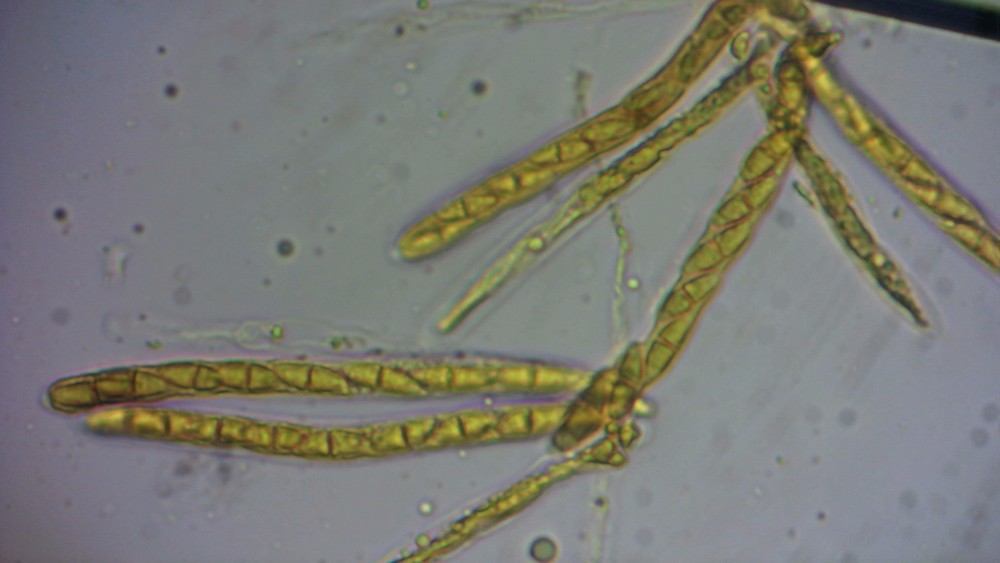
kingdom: Fungi
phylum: Ascomycota
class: Sordariomycetes
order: Amphisphaeriales
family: Sporocadaceae
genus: Seimatosporium
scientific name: Seimatosporium tostum
